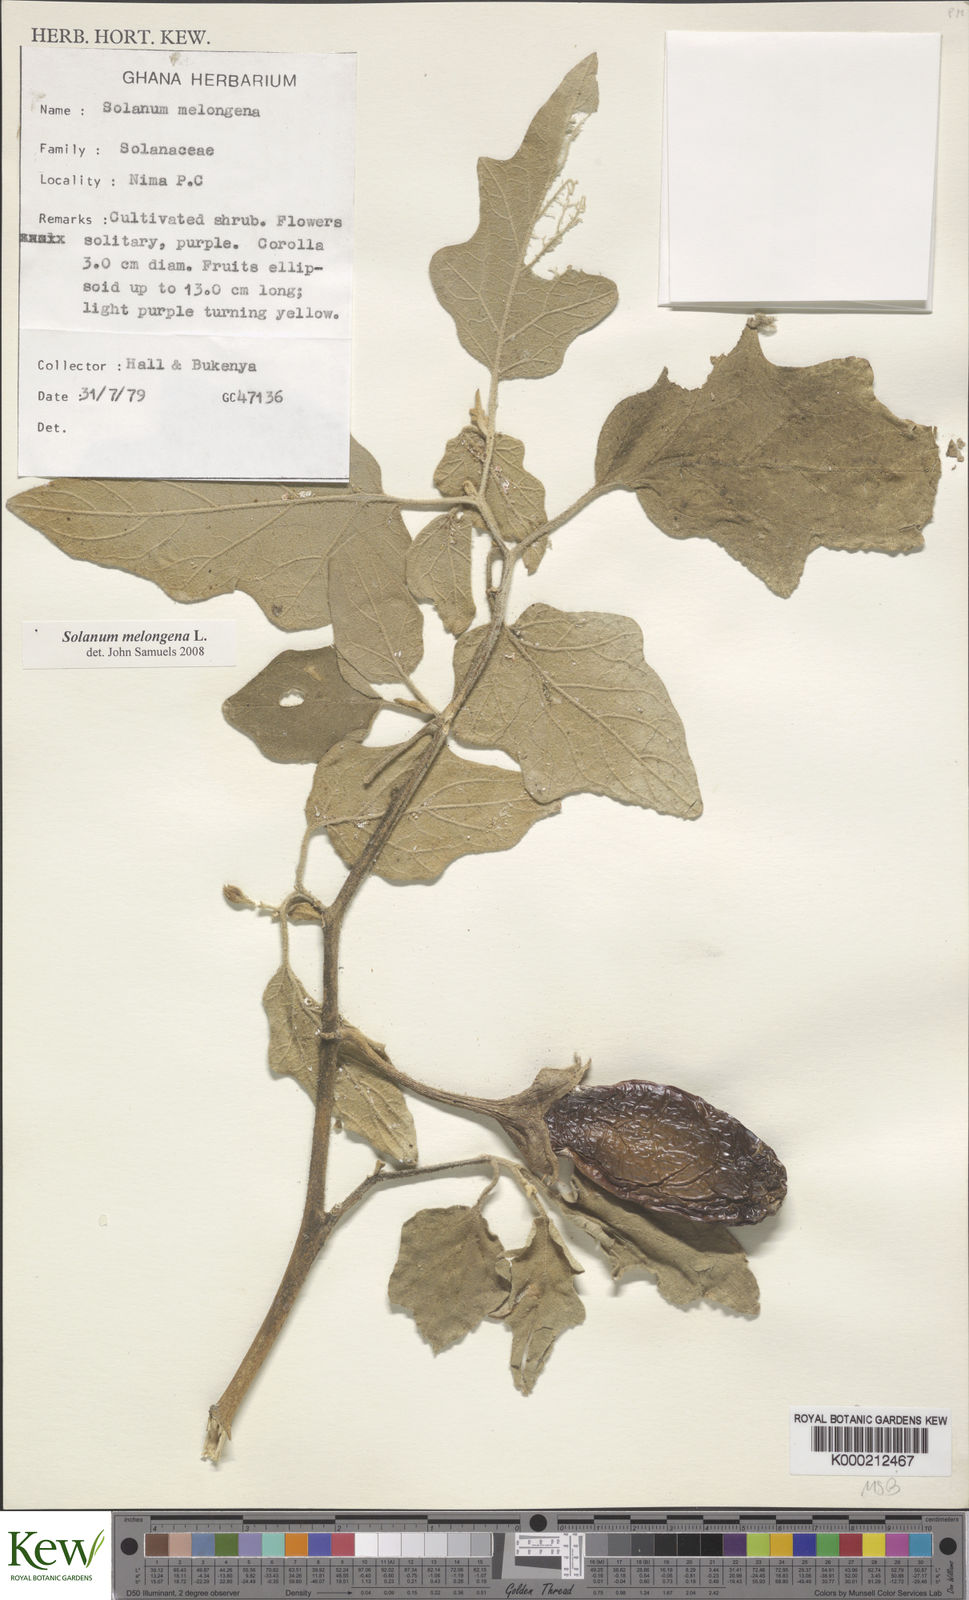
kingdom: Plantae
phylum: Tracheophyta
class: Magnoliopsida
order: Solanales
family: Solanaceae
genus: Solanum
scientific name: Solanum melongena
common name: Eggplant
